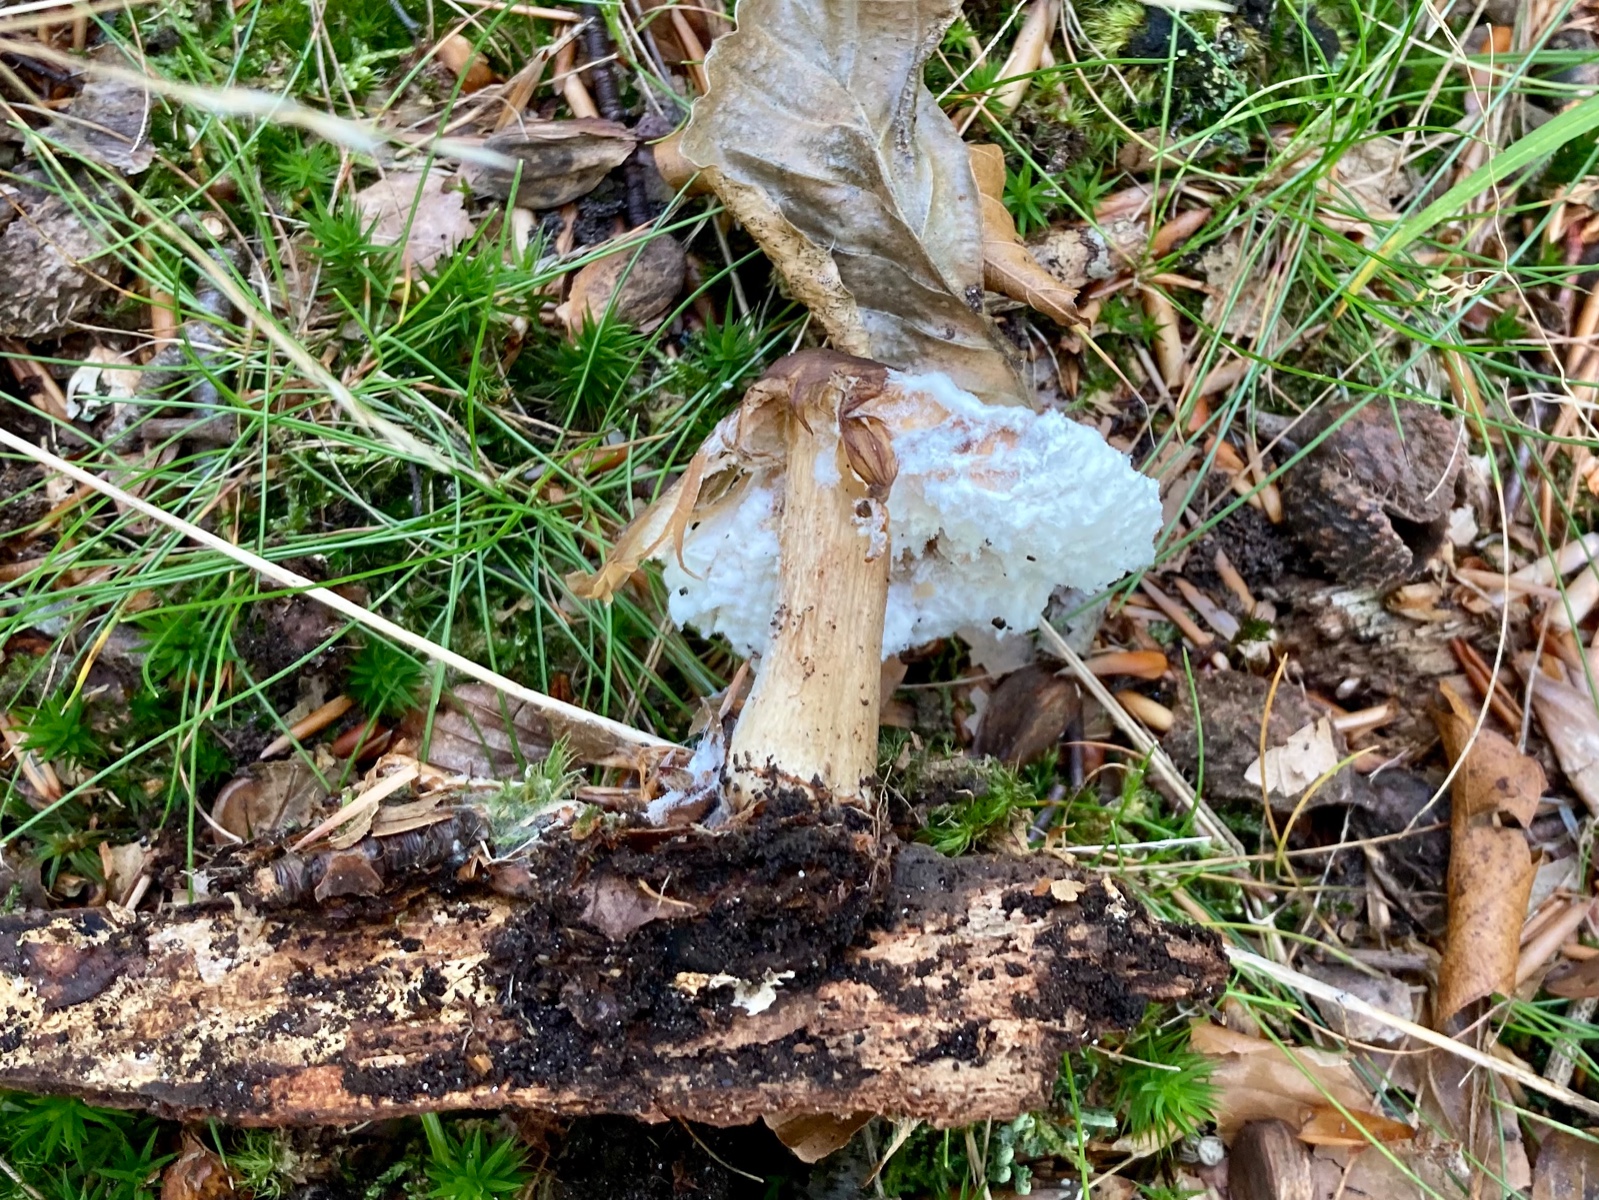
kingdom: Fungi
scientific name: Fungi
